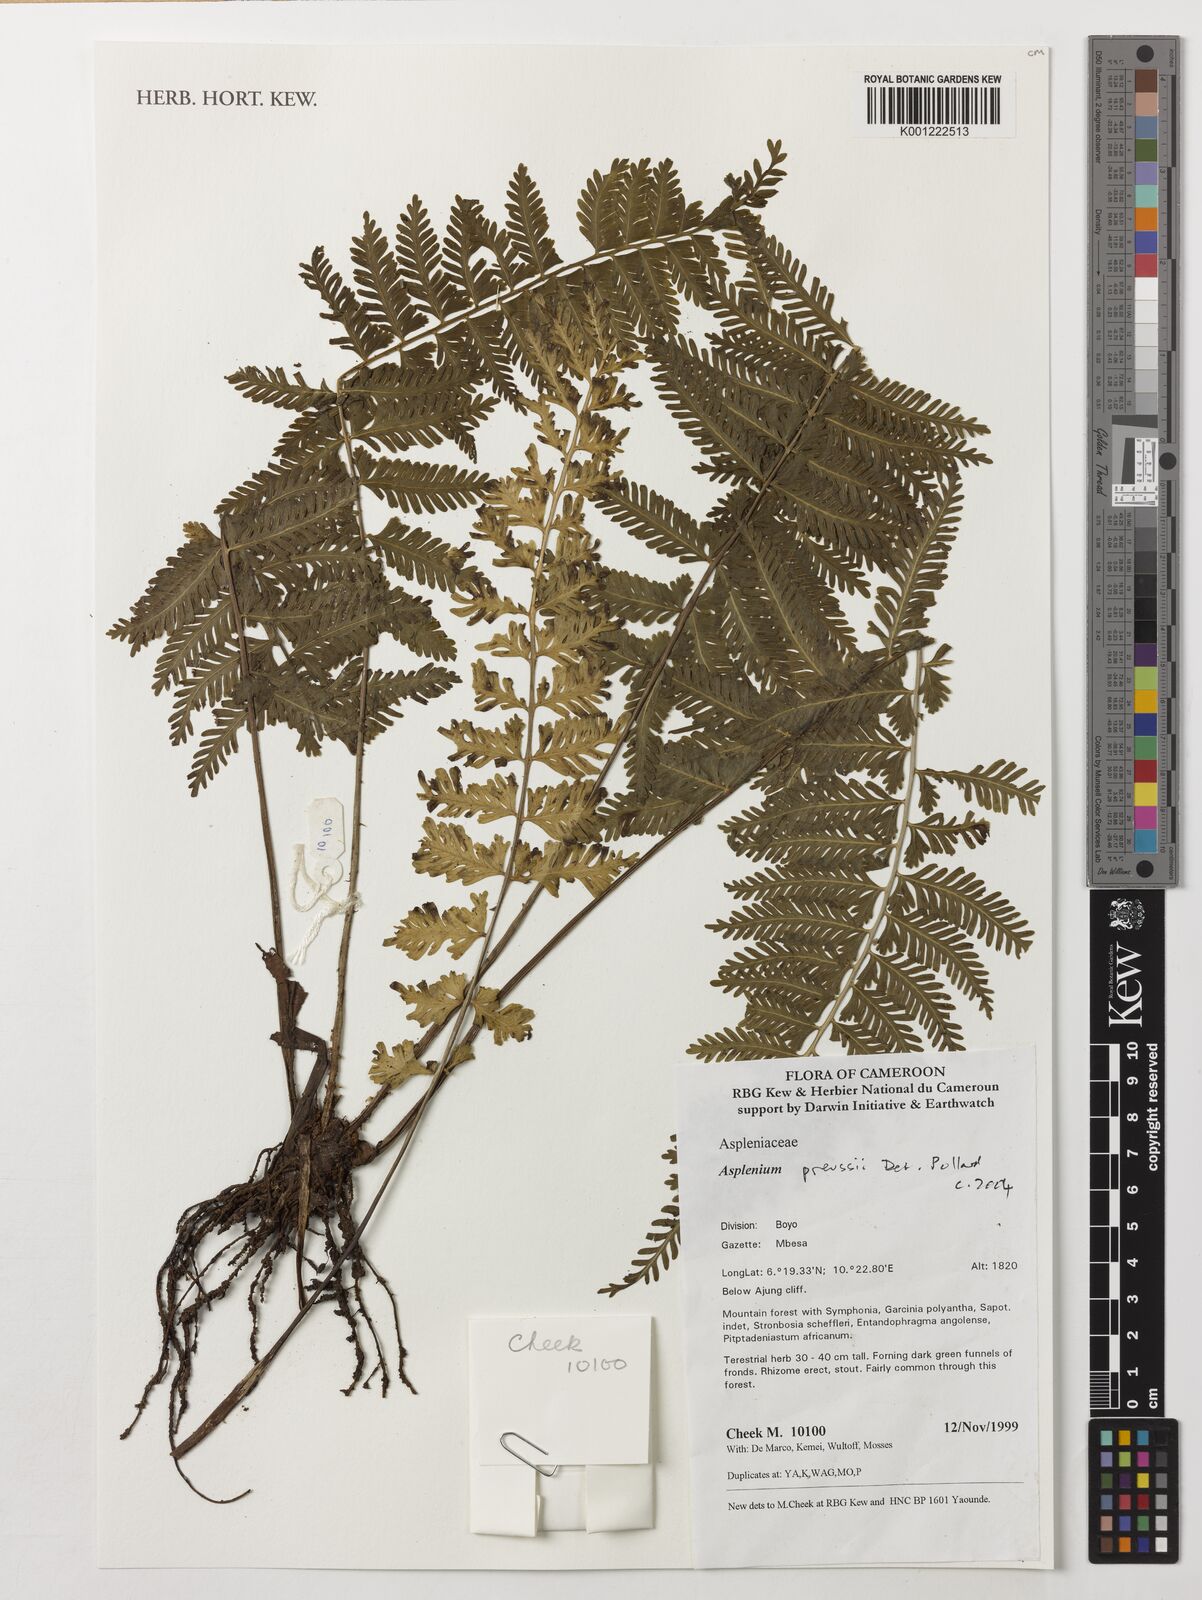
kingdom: Plantae
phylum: Tracheophyta
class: Polypodiopsida
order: Polypodiales
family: Aspleniaceae
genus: Asplenium
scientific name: Asplenium preussii
